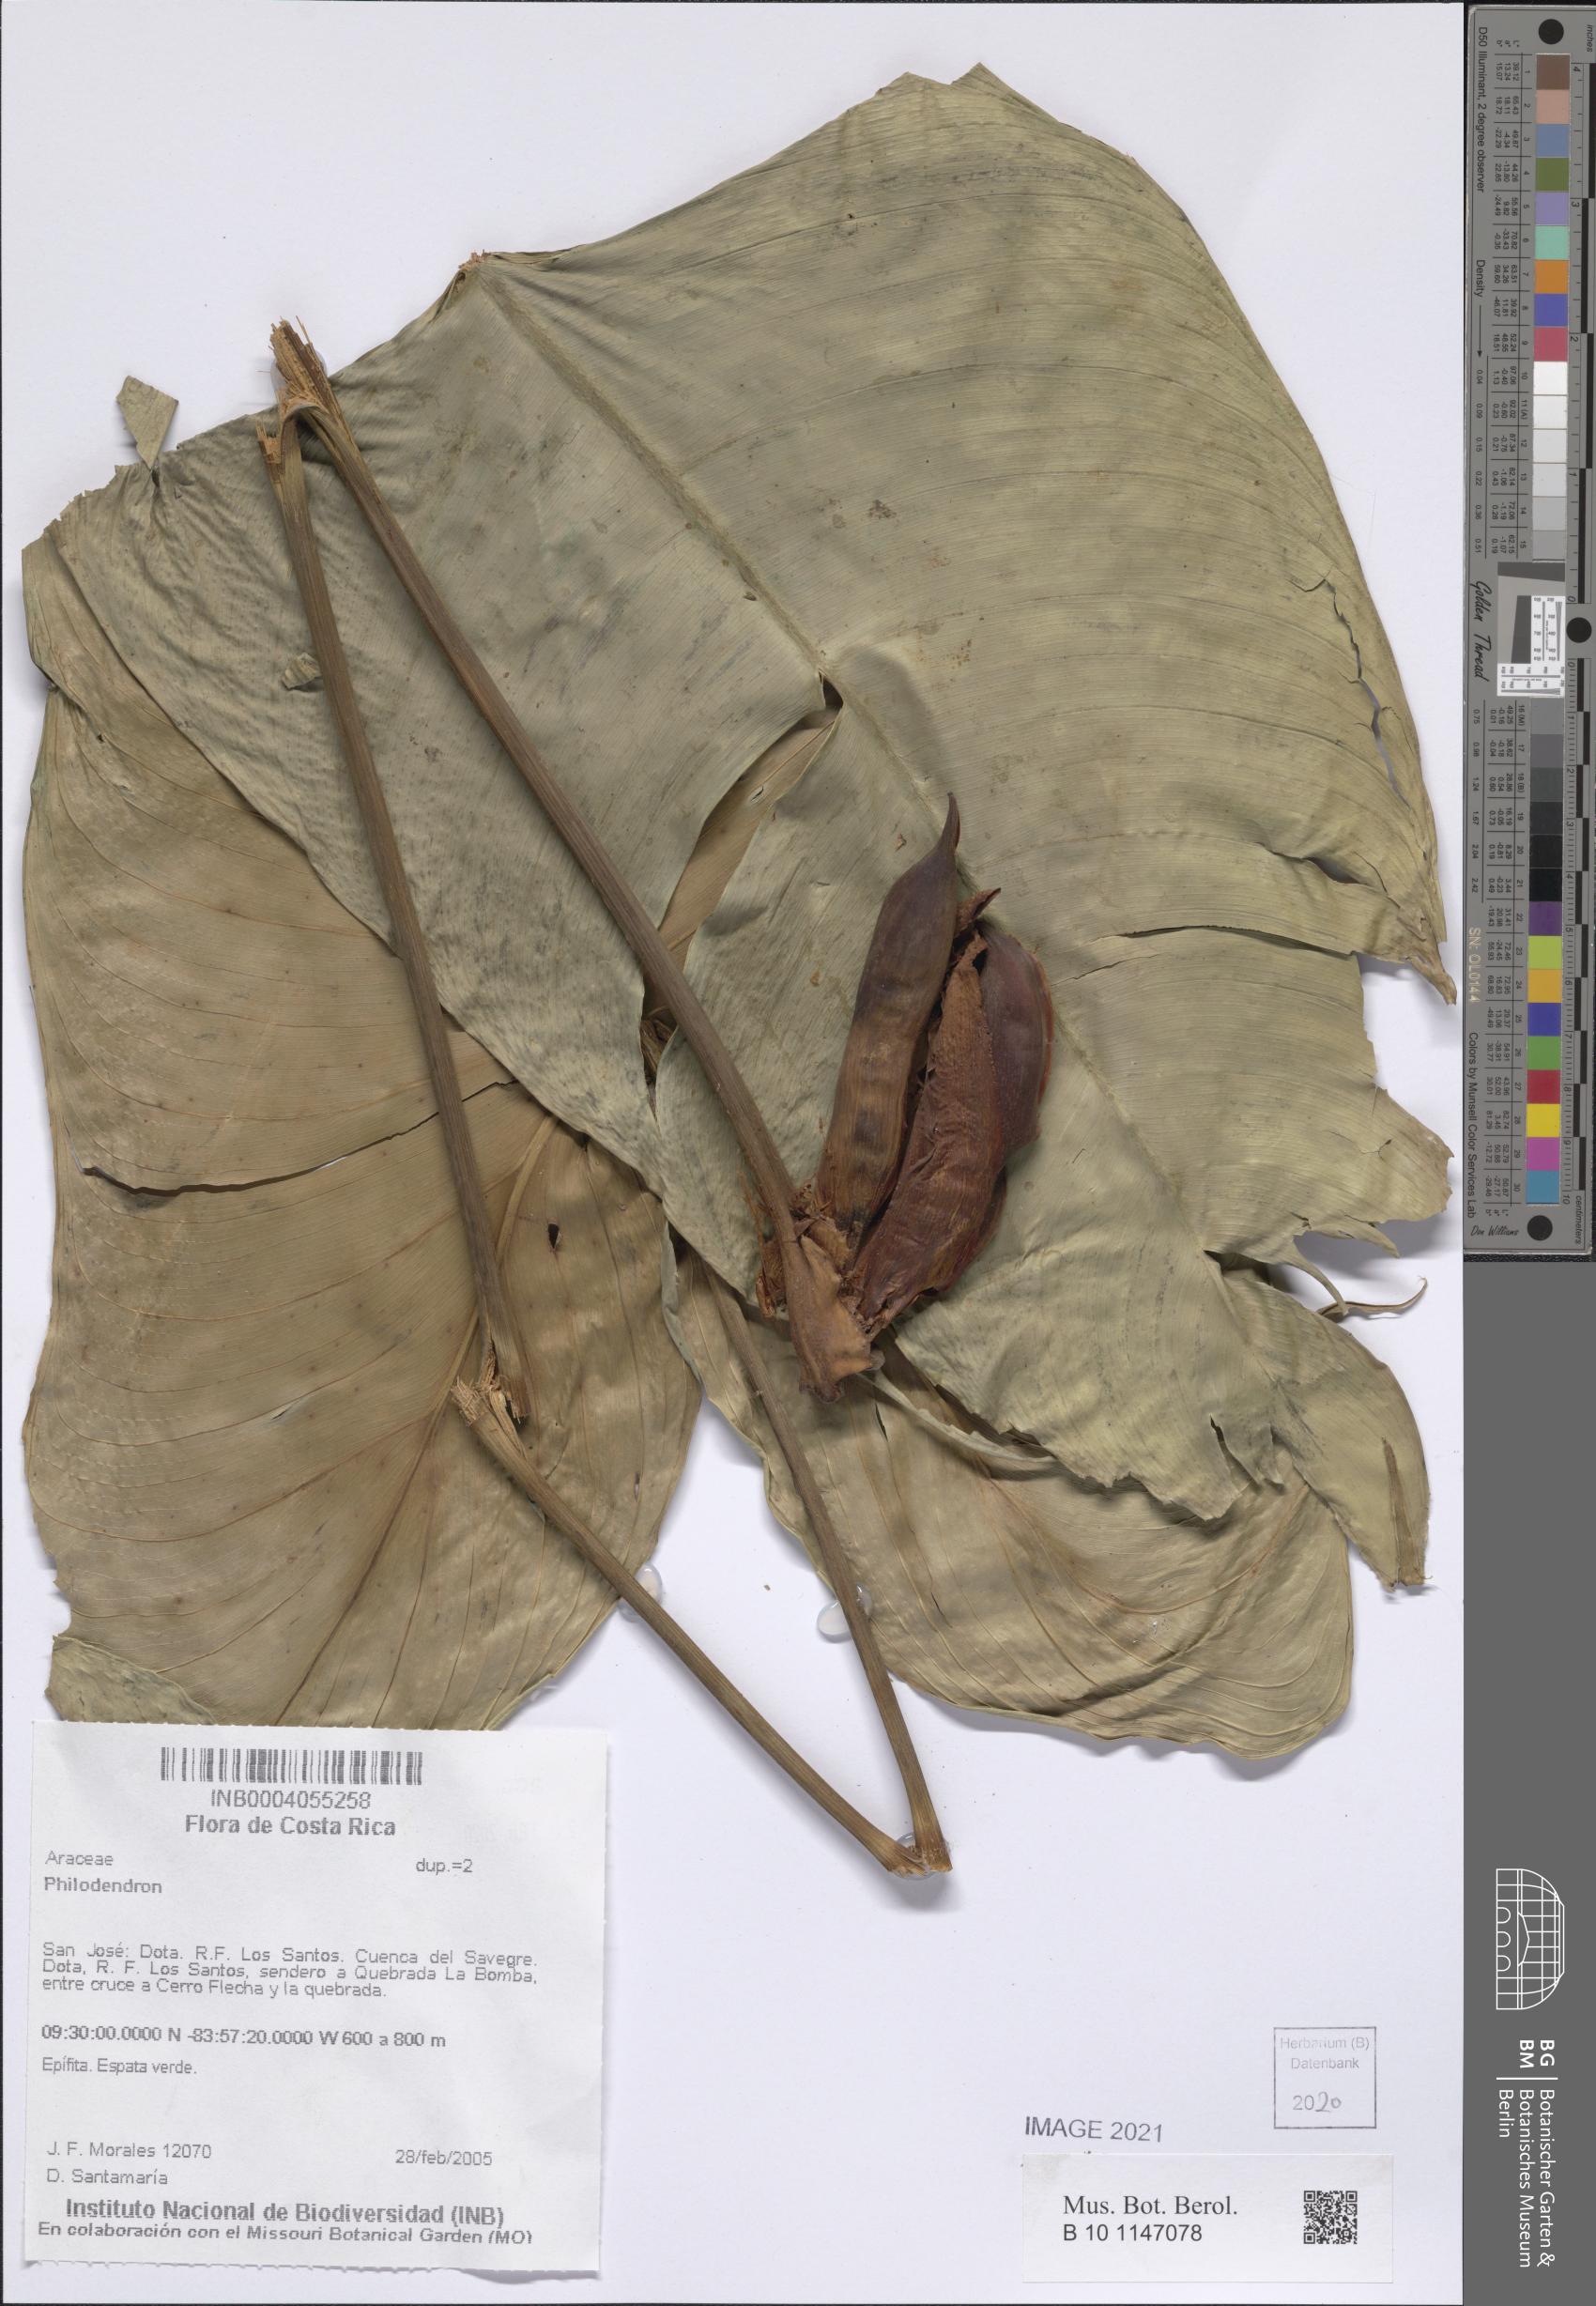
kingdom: Plantae
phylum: Tracheophyta
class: Liliopsida
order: Alismatales
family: Araceae
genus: Philodendron
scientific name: Philodendron
